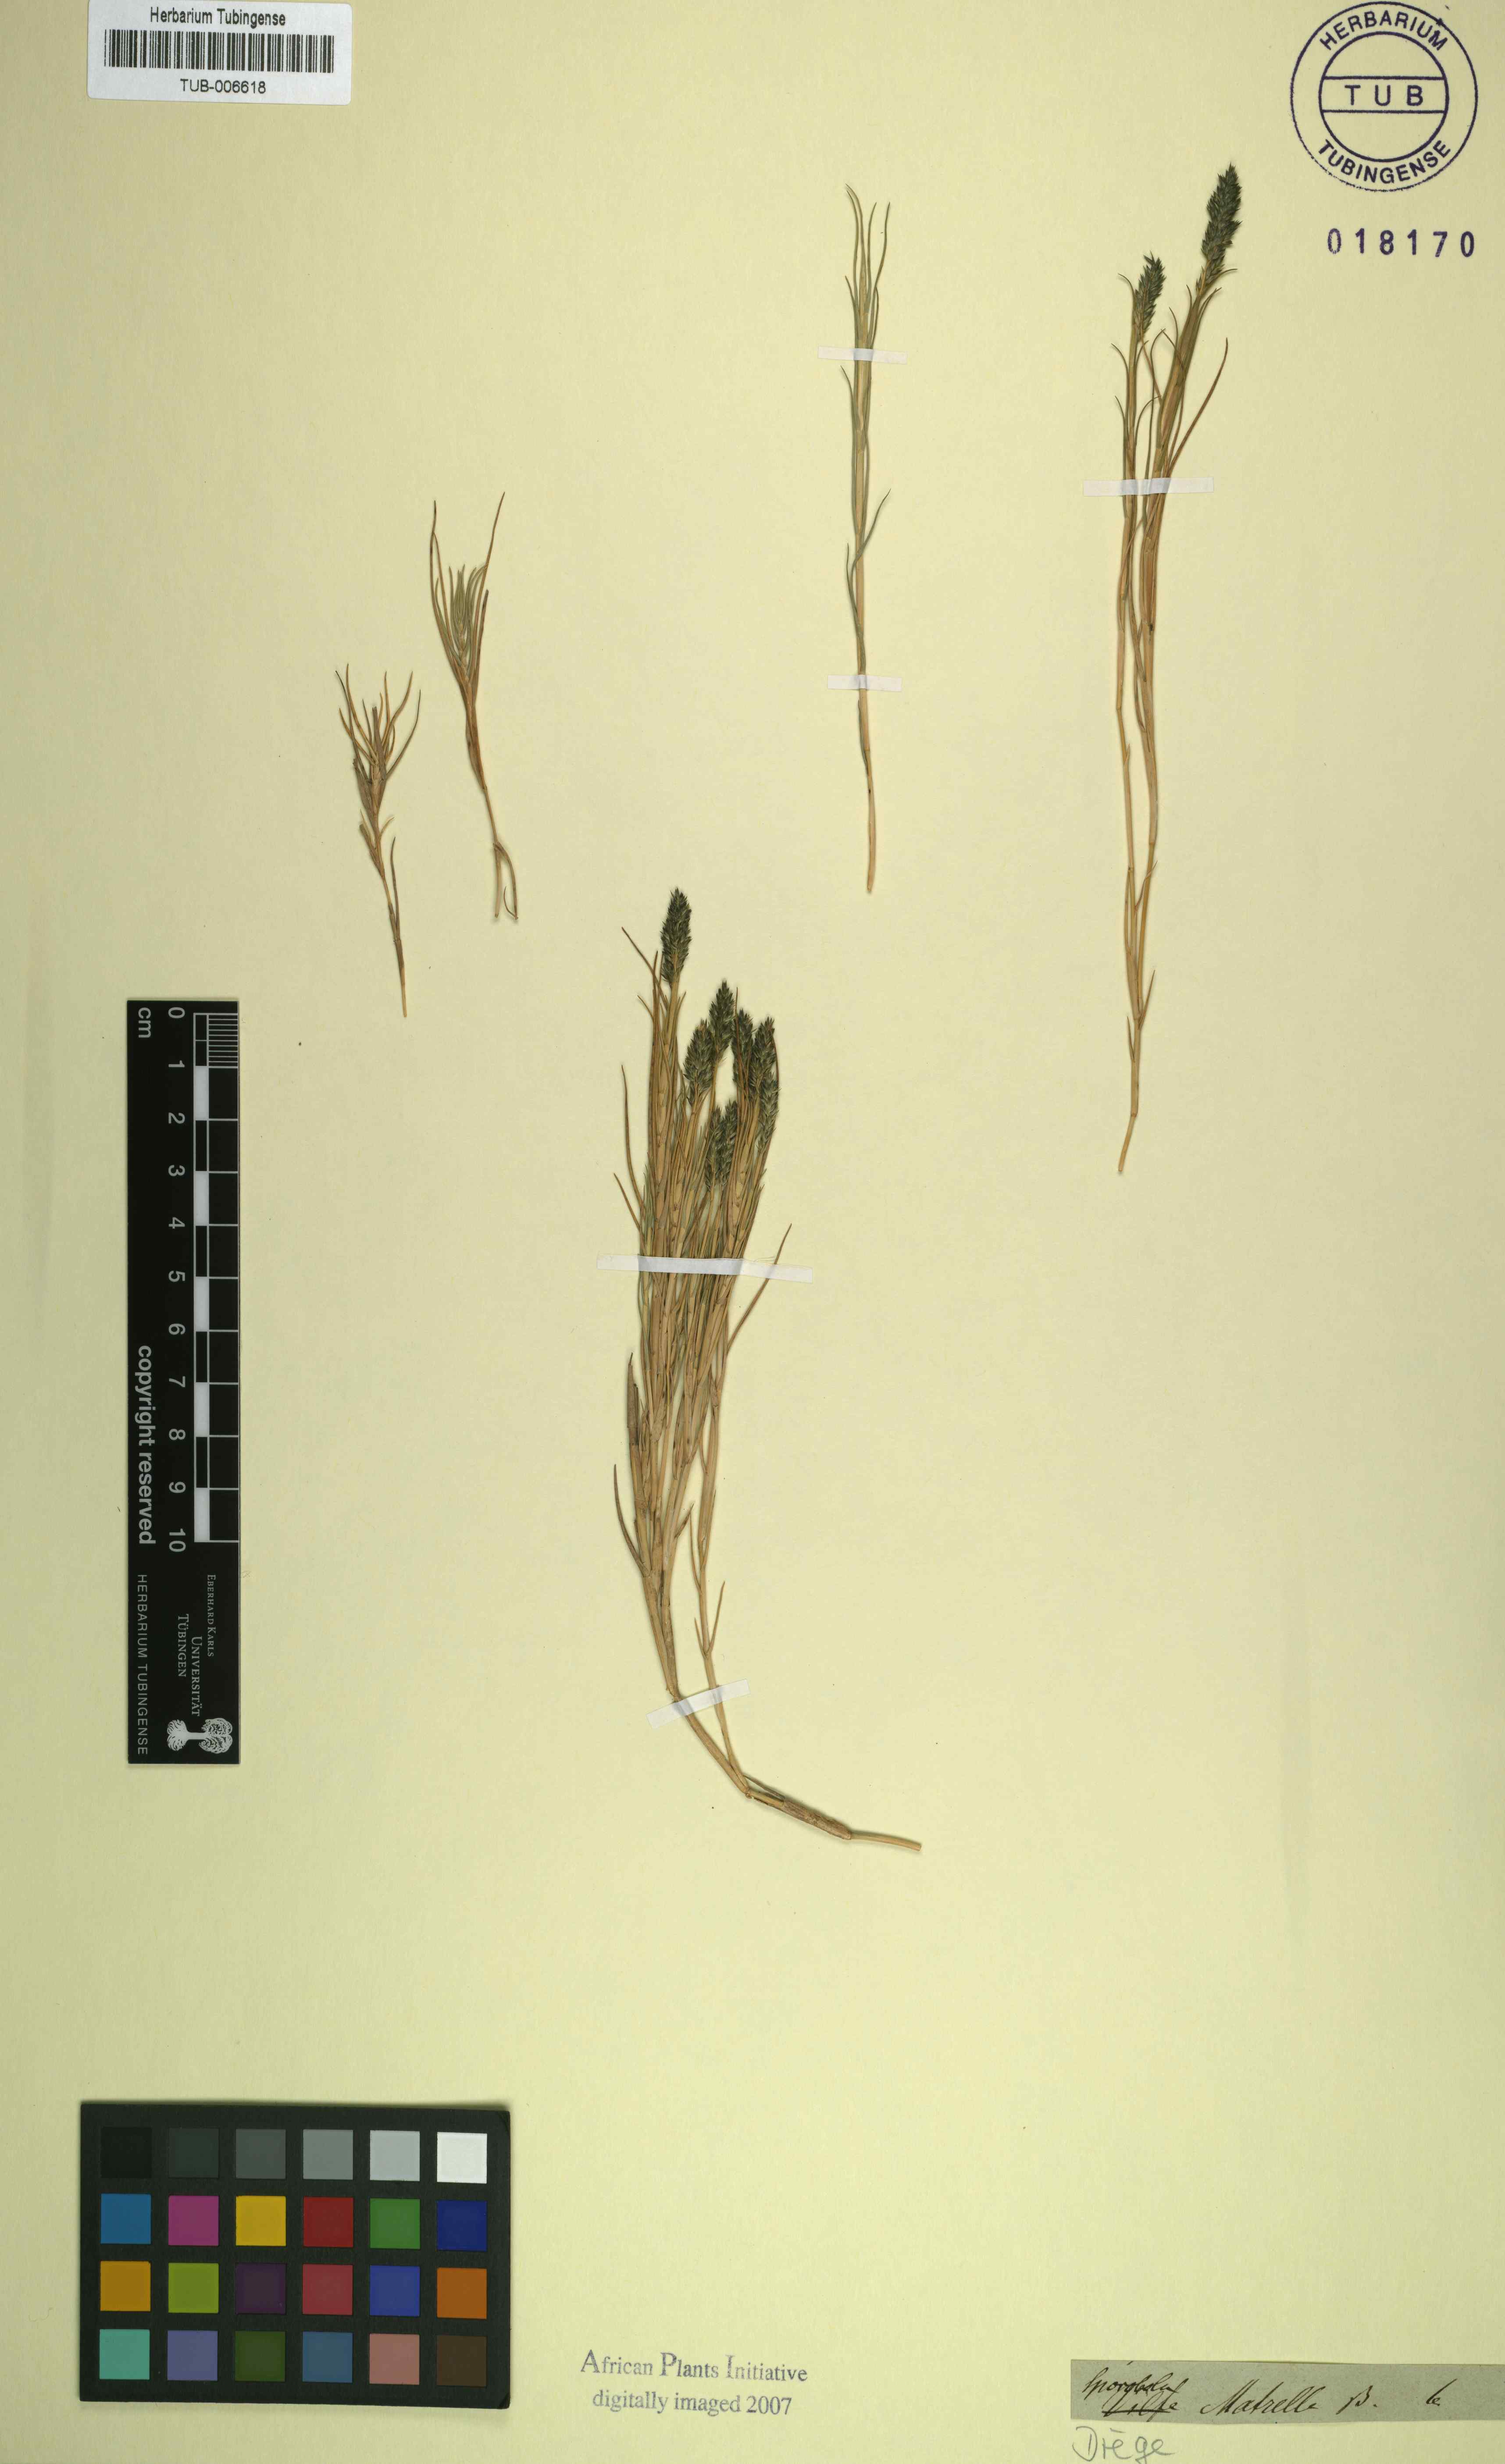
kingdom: Plantae
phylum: Tracheophyta
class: Liliopsida
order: Poales
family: Poaceae
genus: Sporobolus
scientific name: Sporobolus virginicus
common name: Beach dropseed
